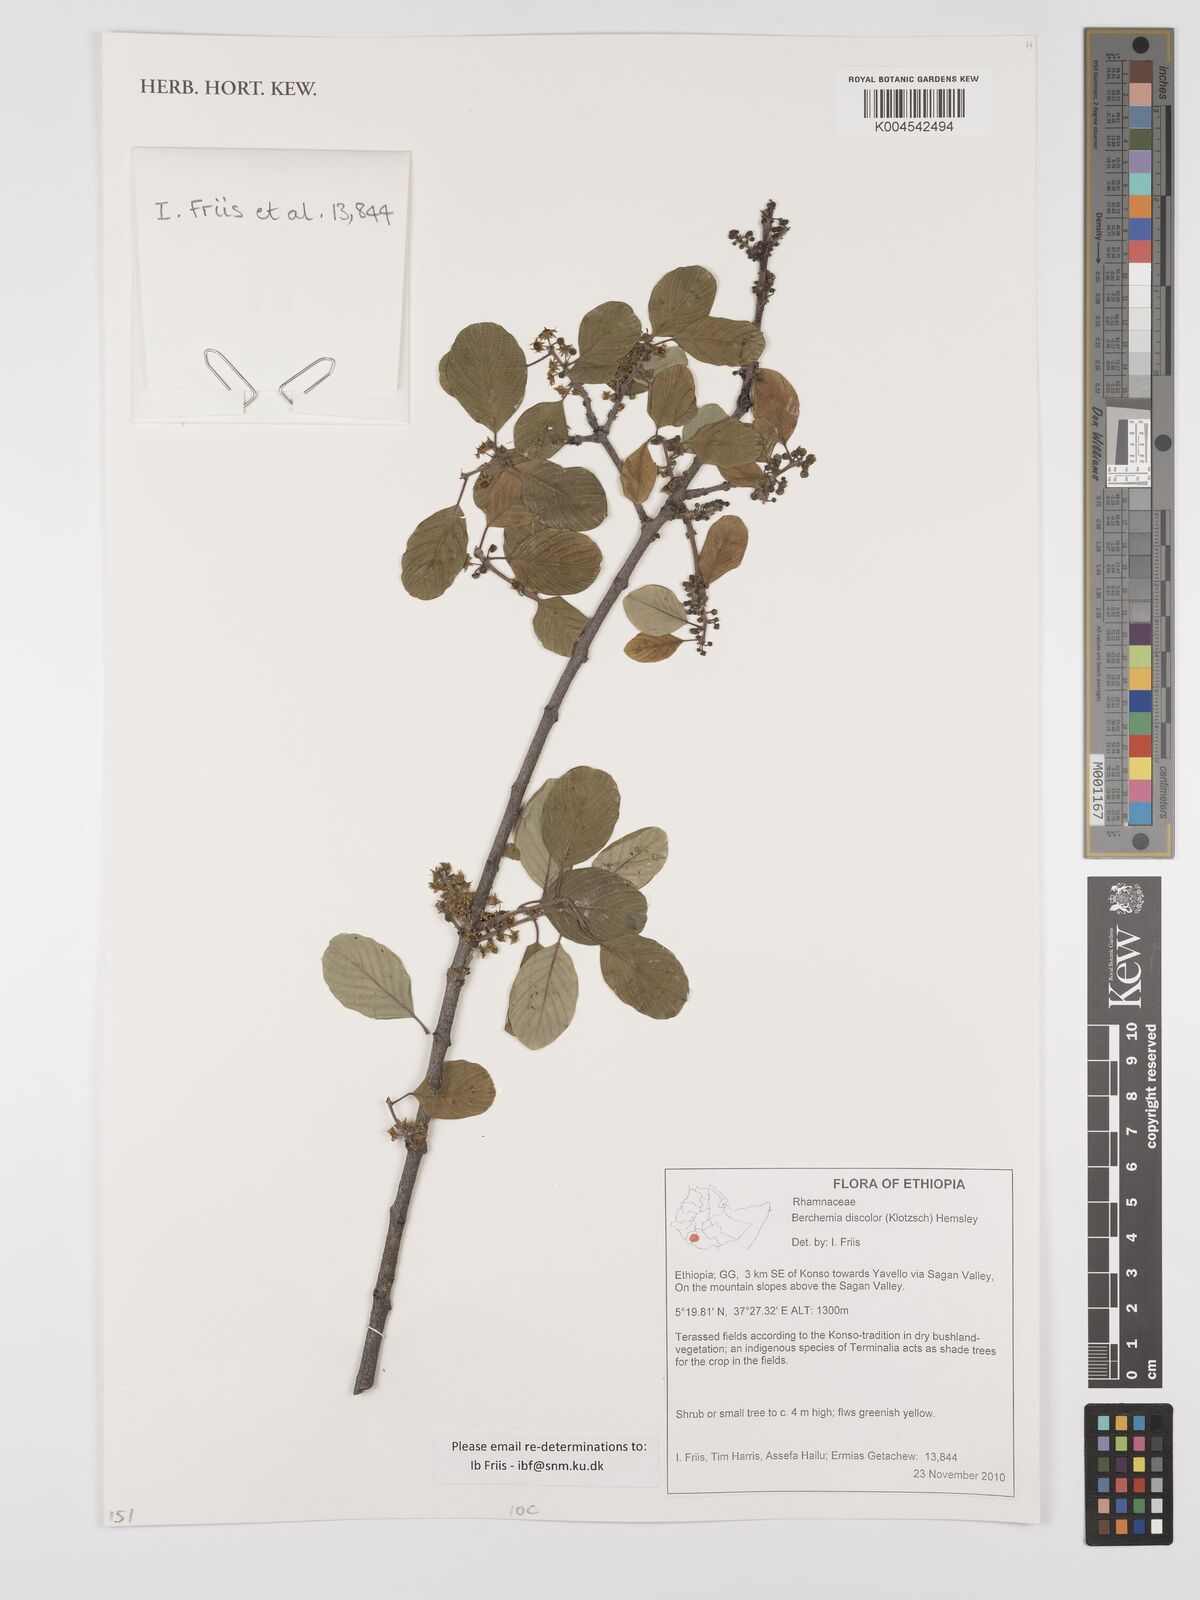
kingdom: Plantae
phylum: Tracheophyta
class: Magnoliopsida
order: Rosales
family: Rhamnaceae
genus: Phyllogeiton
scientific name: Phyllogeiton discolor
